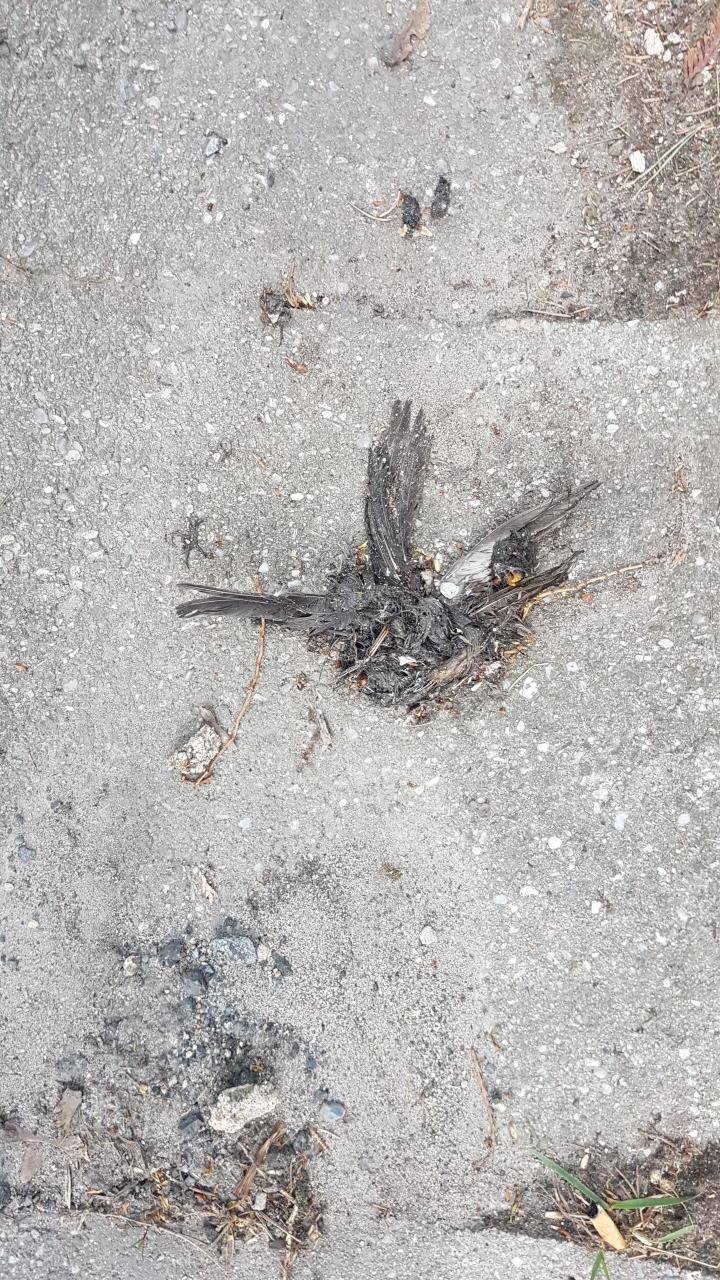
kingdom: Animalia
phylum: Chordata
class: Aves
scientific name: Aves
